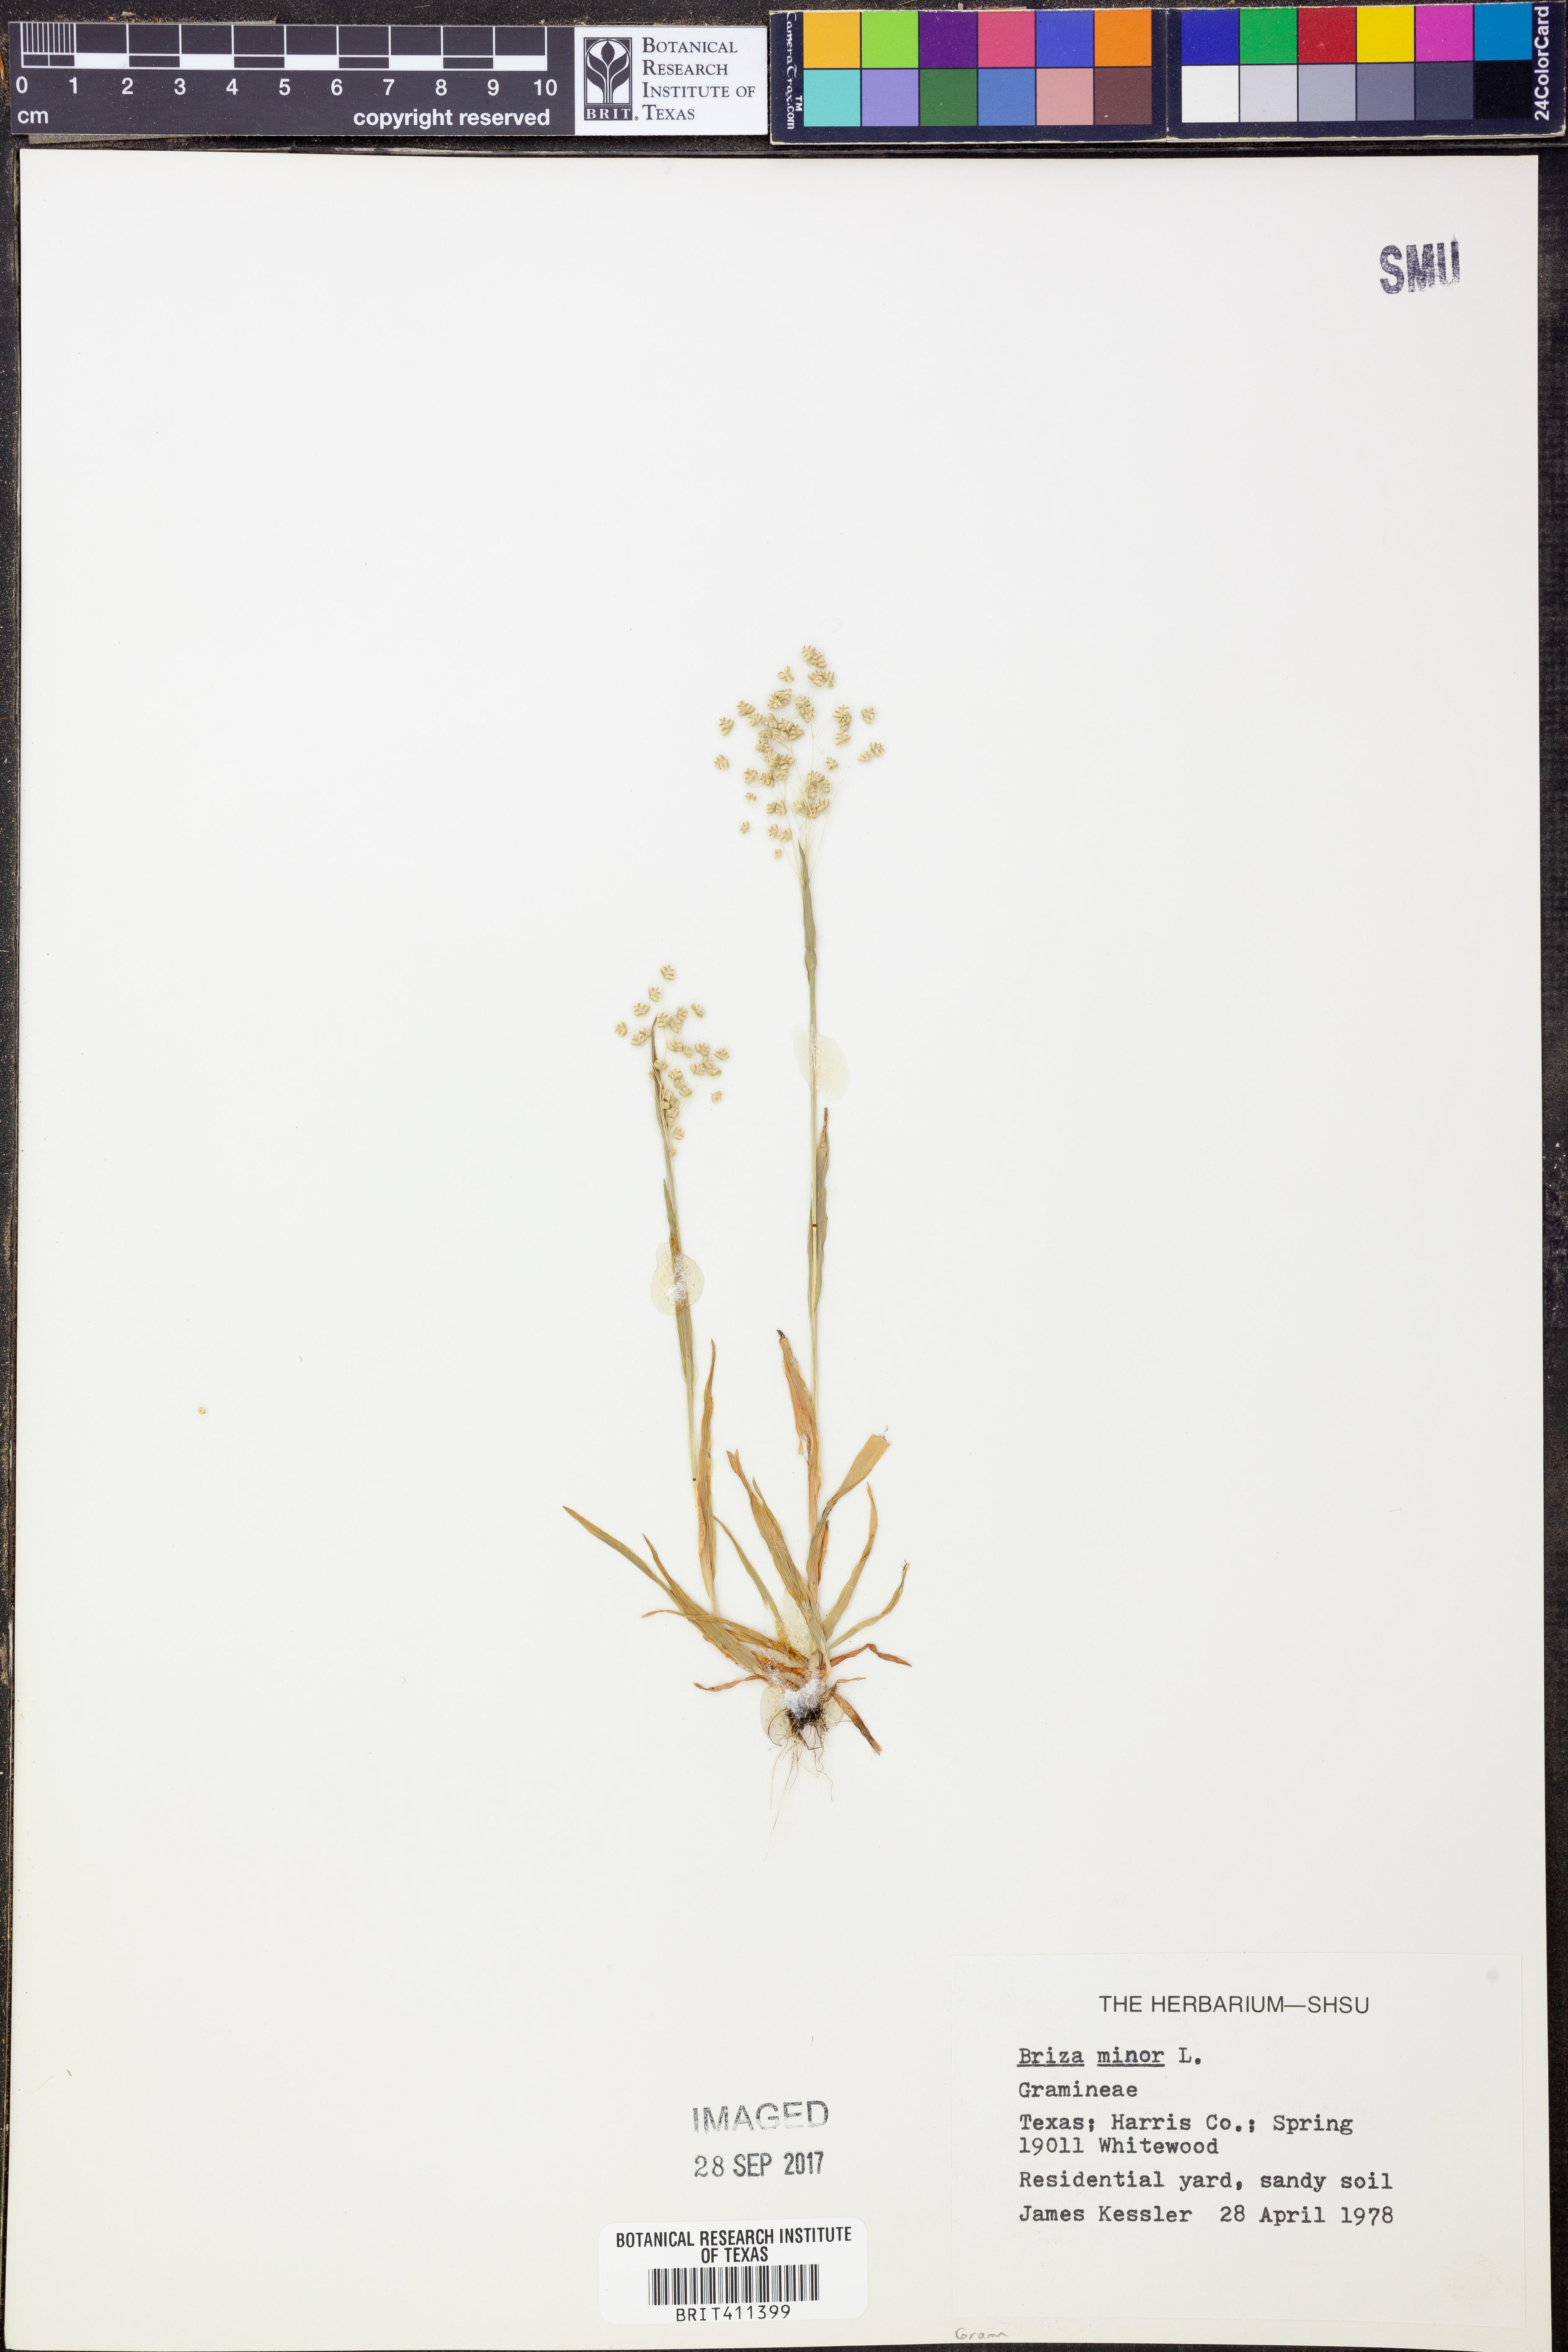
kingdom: Plantae
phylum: Tracheophyta
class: Liliopsida
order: Poales
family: Poaceae
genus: Briza
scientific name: Briza minor
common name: Lesser quaking-grass
